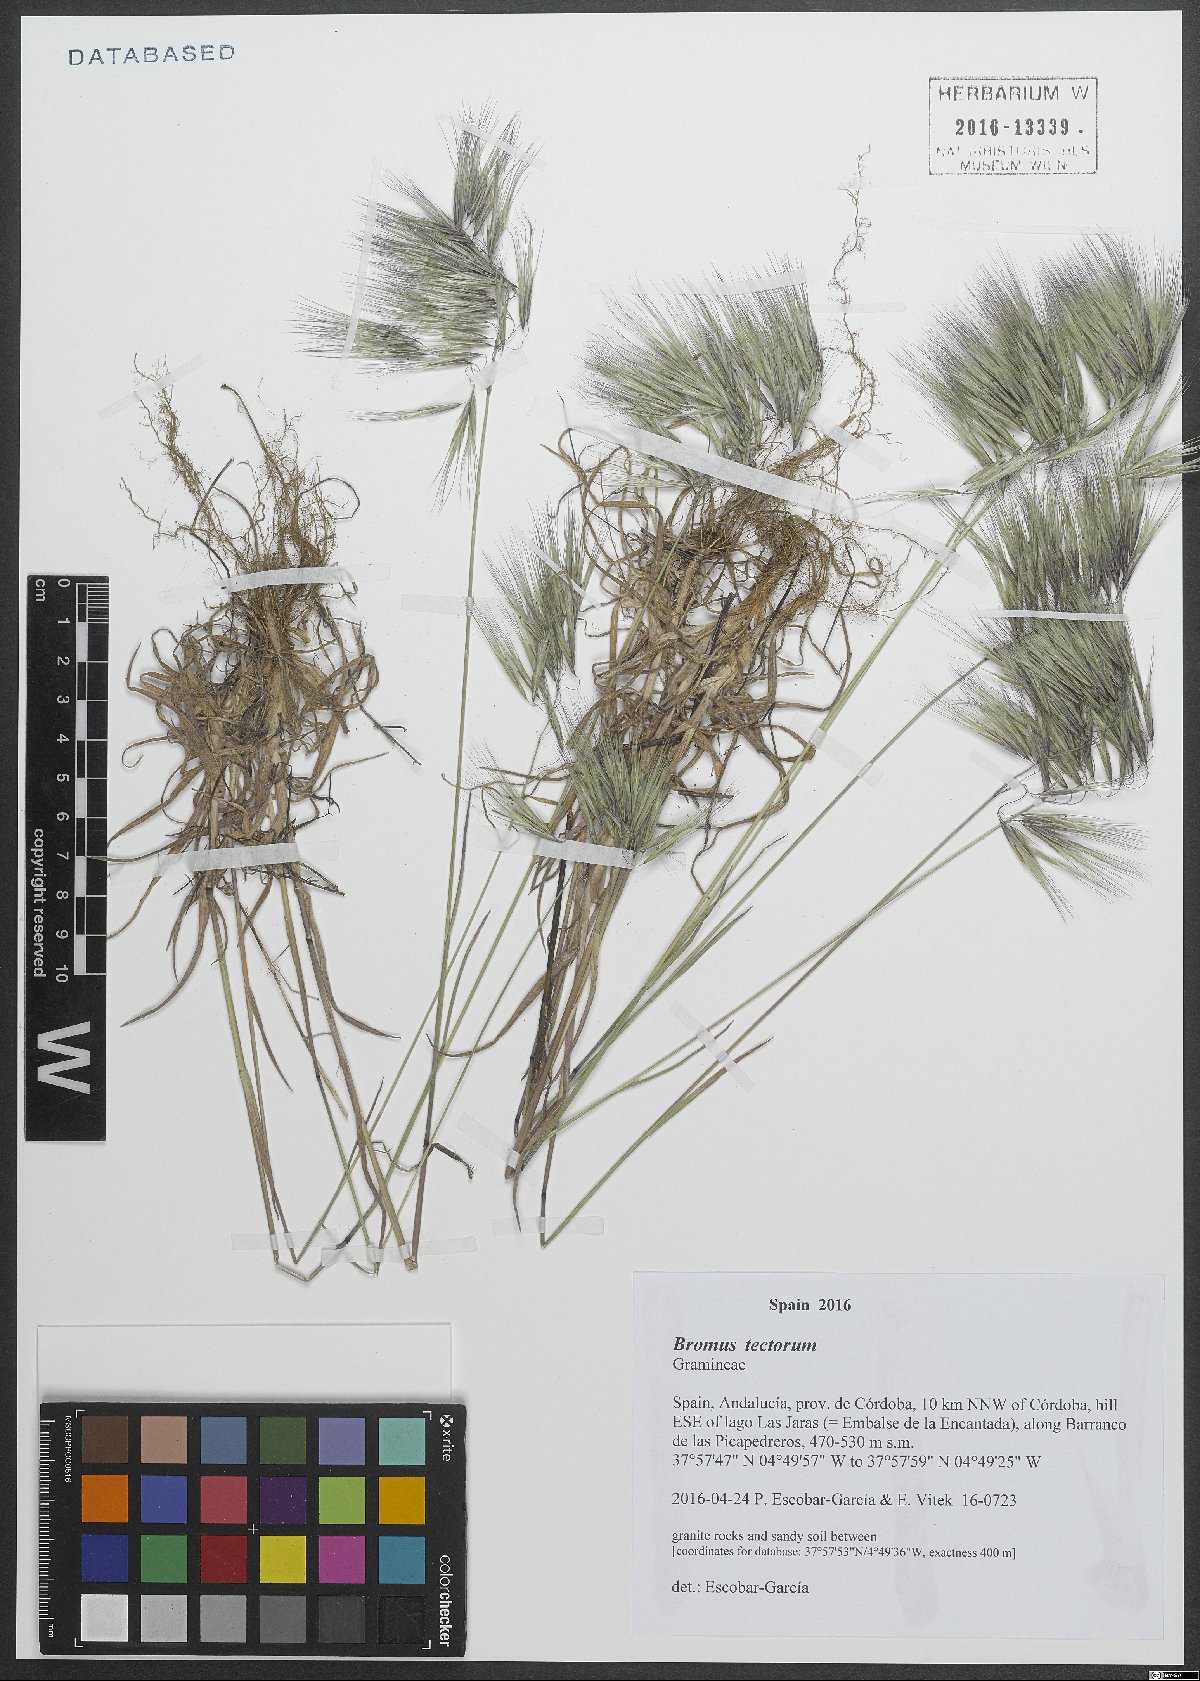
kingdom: Plantae
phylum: Tracheophyta
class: Liliopsida
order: Poales
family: Poaceae
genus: Bromus
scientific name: Bromus tectorum
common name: Cheatgrass
